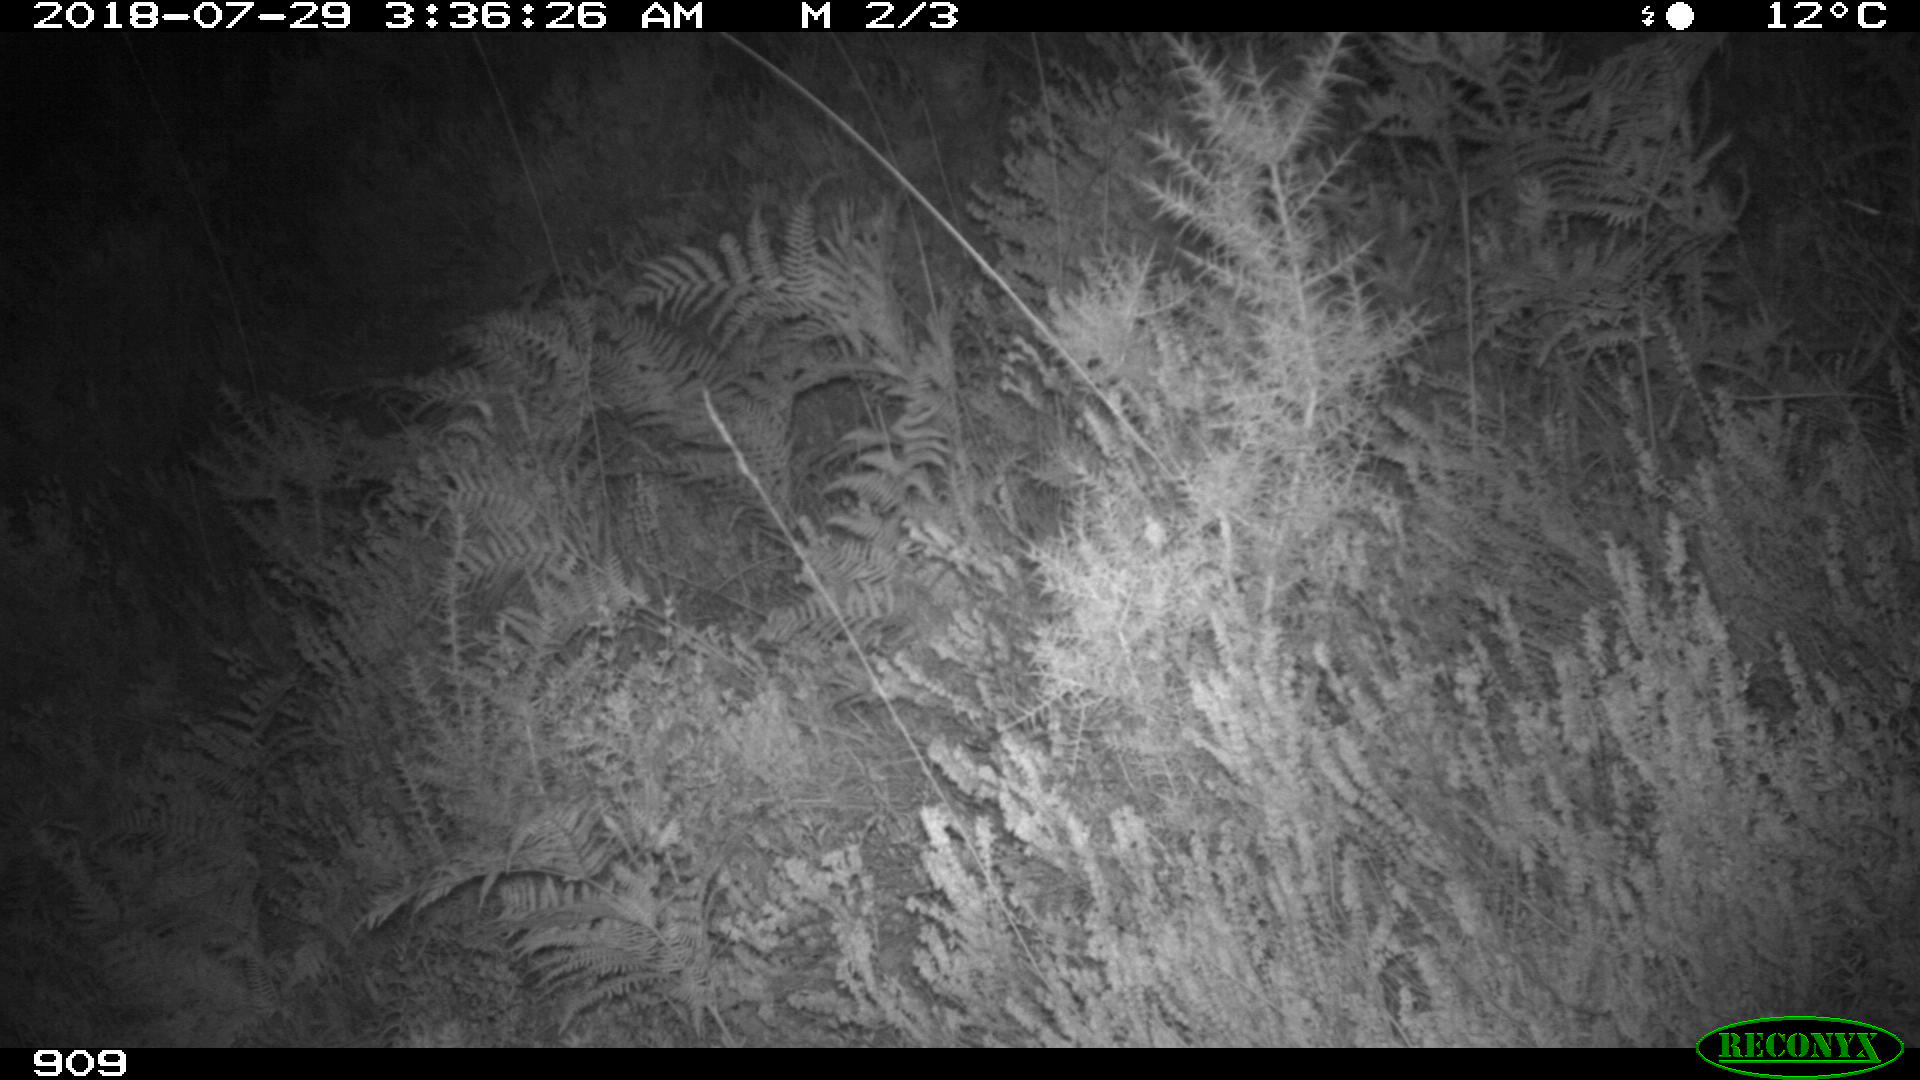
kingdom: Animalia
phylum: Chordata
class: Mammalia
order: Artiodactyla
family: Cervidae
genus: Capreolus
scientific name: Capreolus capreolus
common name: Western roe deer
